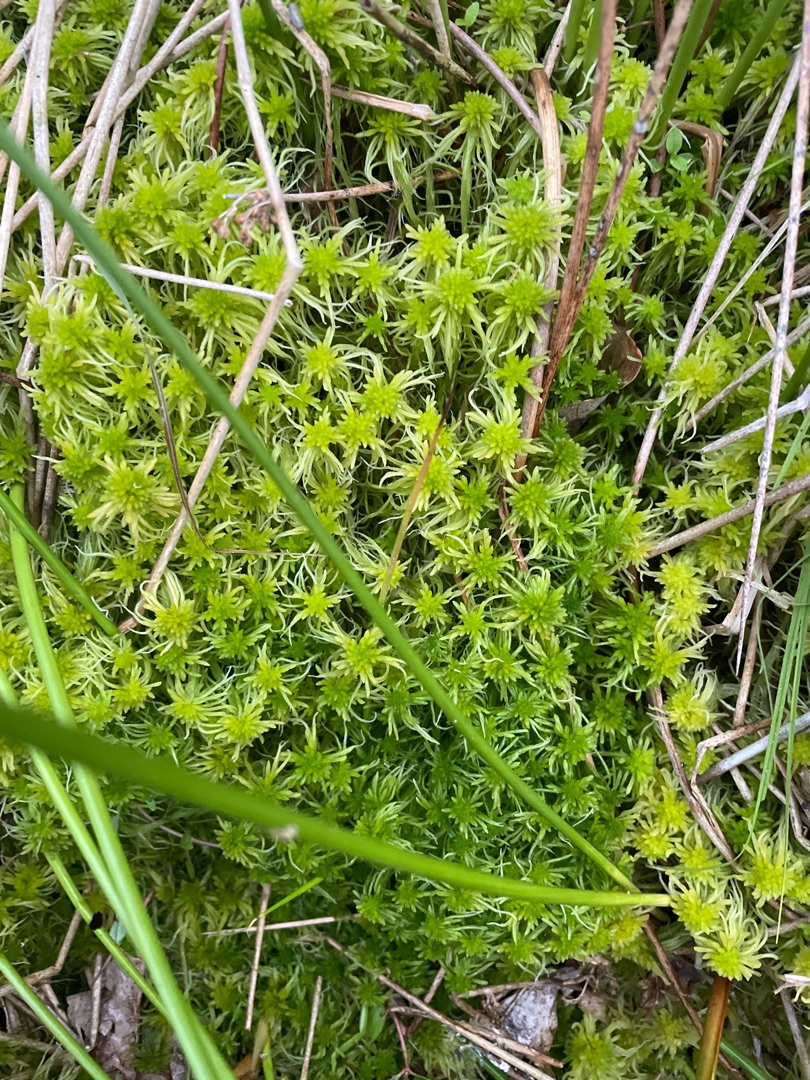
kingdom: Plantae
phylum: Bryophyta
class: Sphagnopsida
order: Sphagnales
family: Sphagnaceae
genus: Sphagnum
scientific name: Sphagnum
